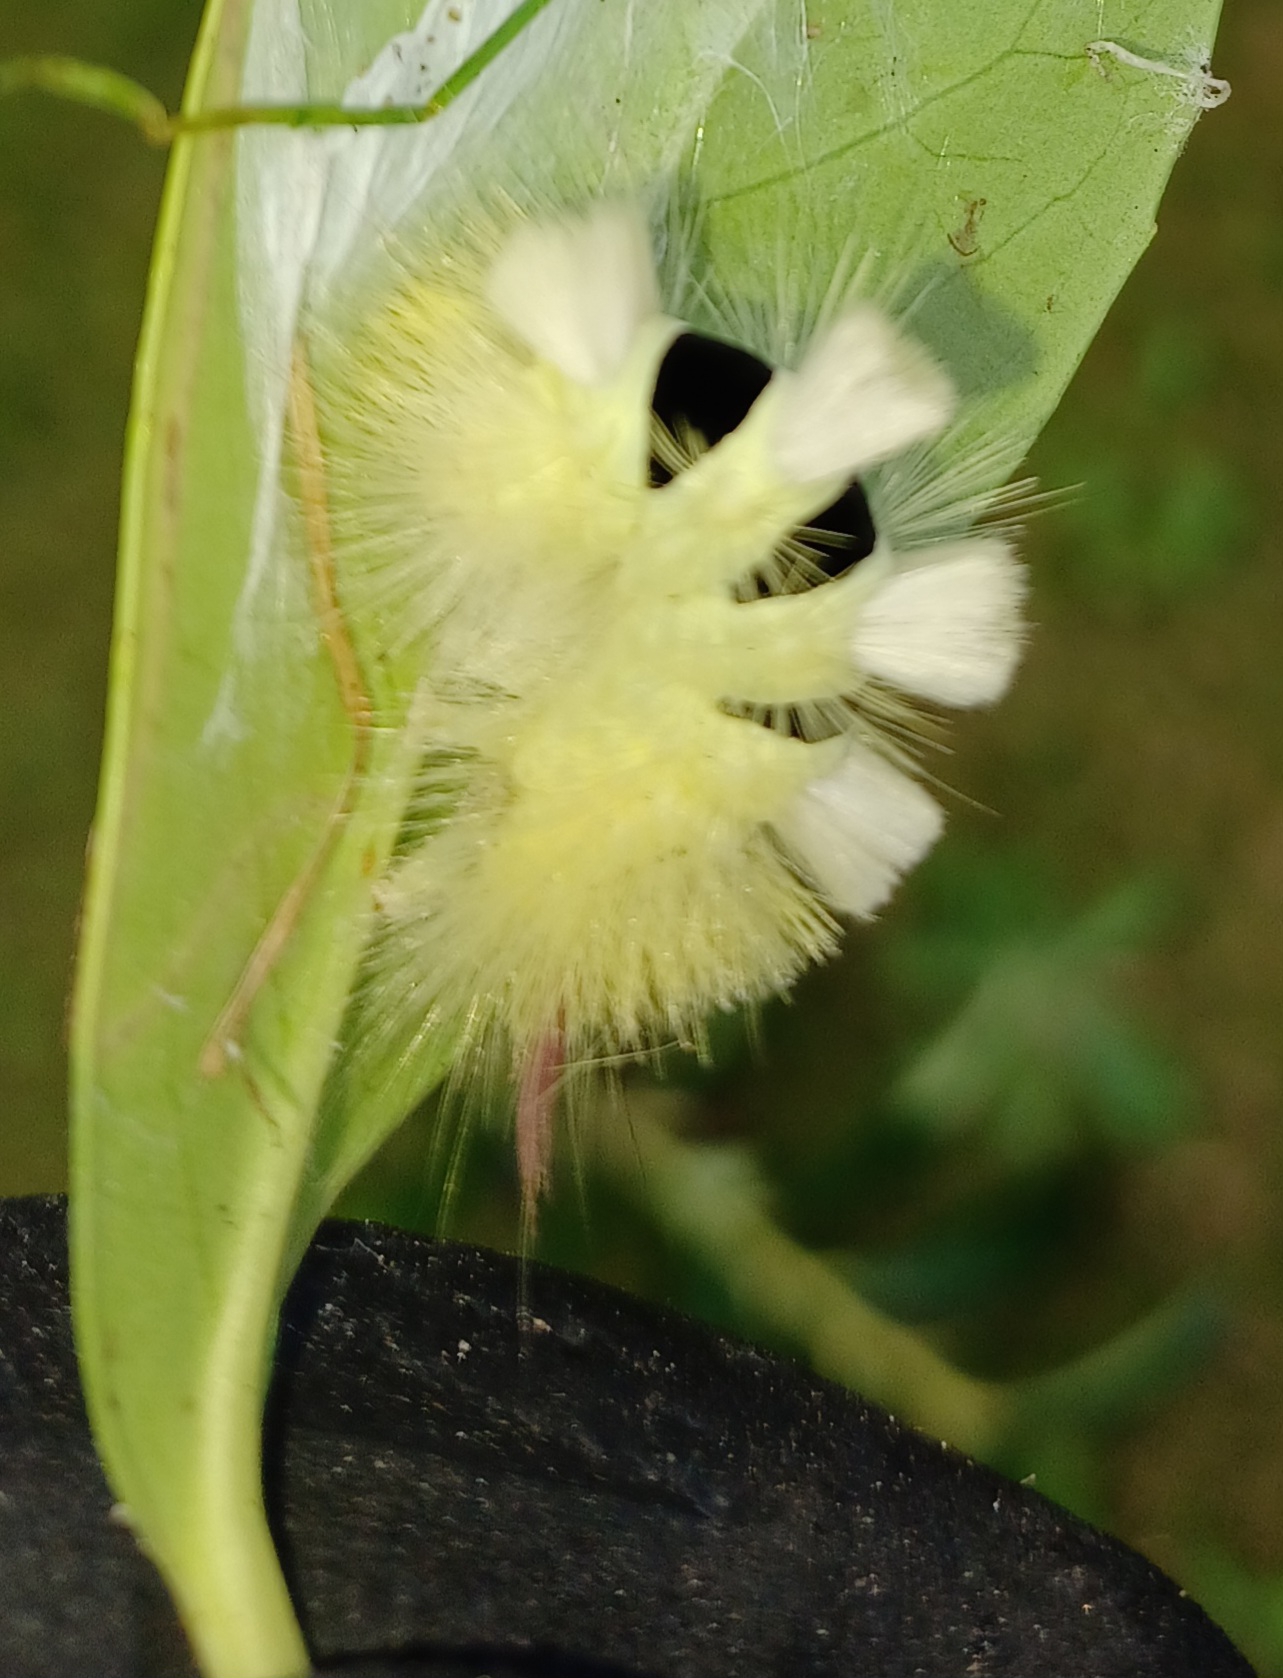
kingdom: Animalia
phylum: Arthropoda
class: Insecta
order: Lepidoptera
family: Erebidae
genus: Calliteara
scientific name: Calliteara pudibunda
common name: Bøgenonne
